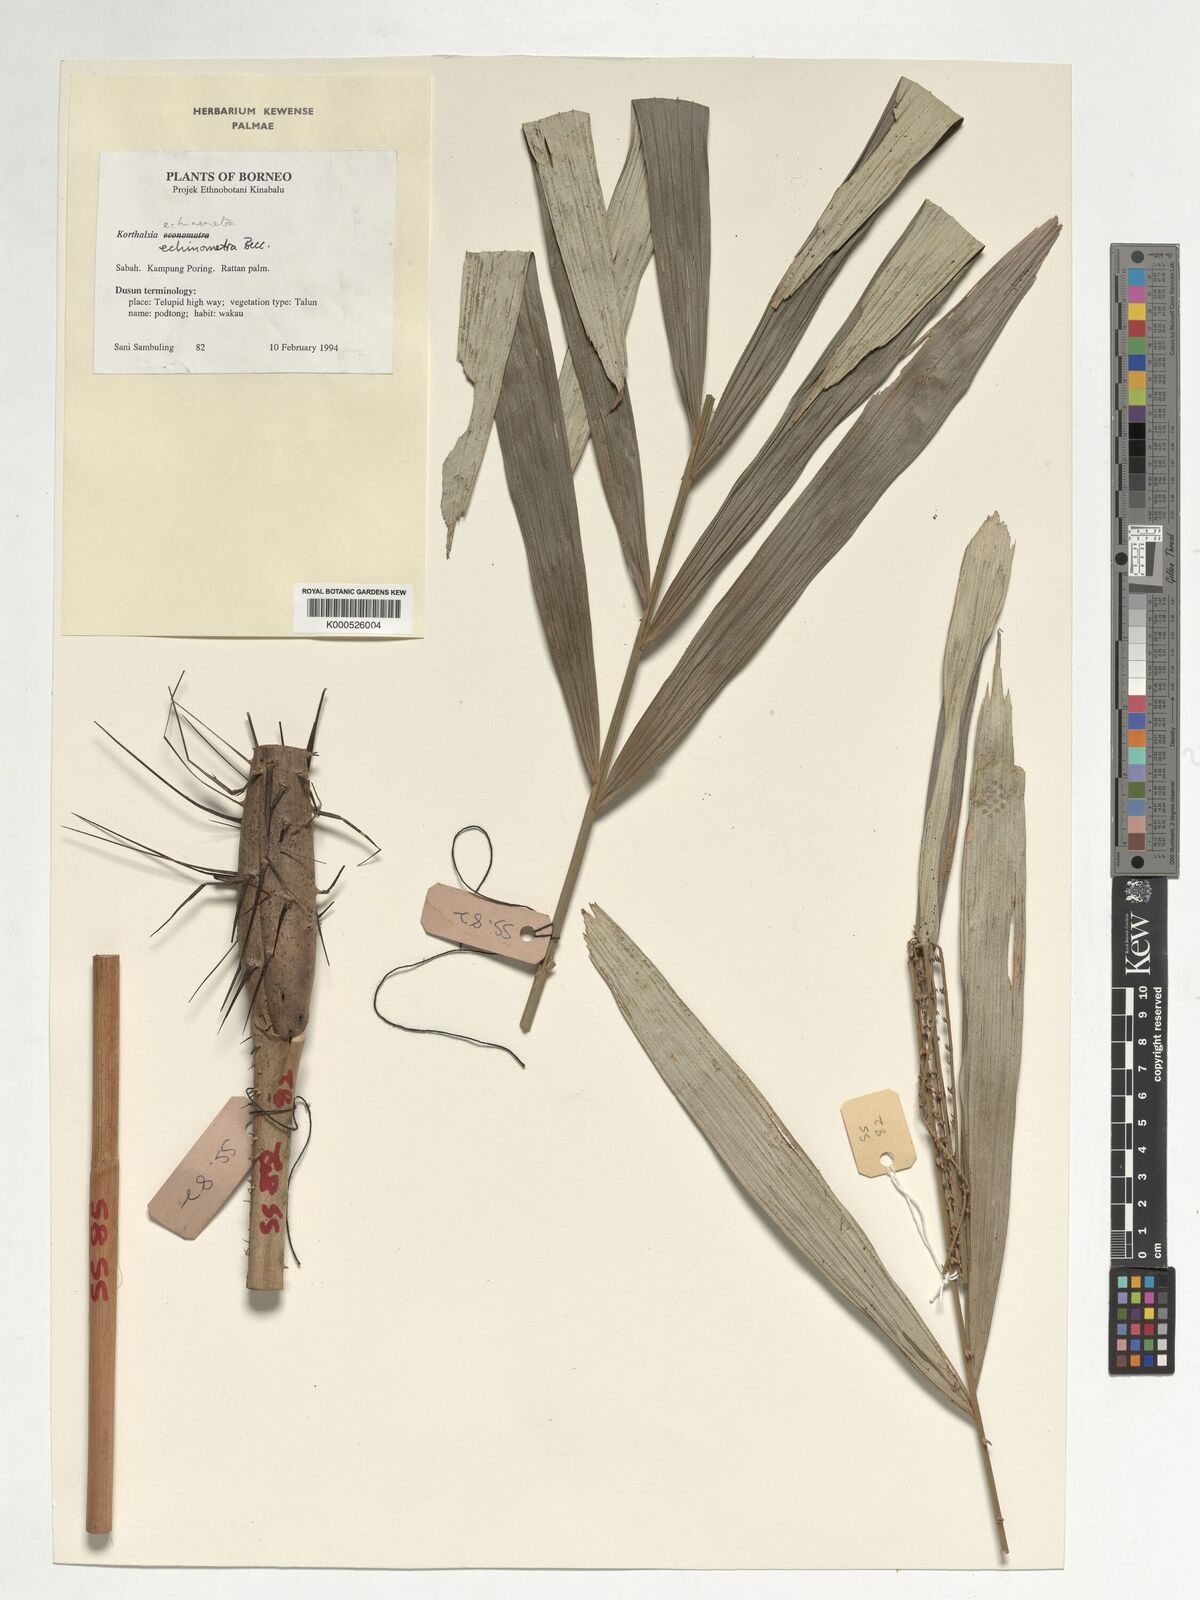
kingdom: Plantae
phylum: Tracheophyta
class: Liliopsida
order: Arecales
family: Arecaceae
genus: Korthalsia
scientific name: Korthalsia echinometra
